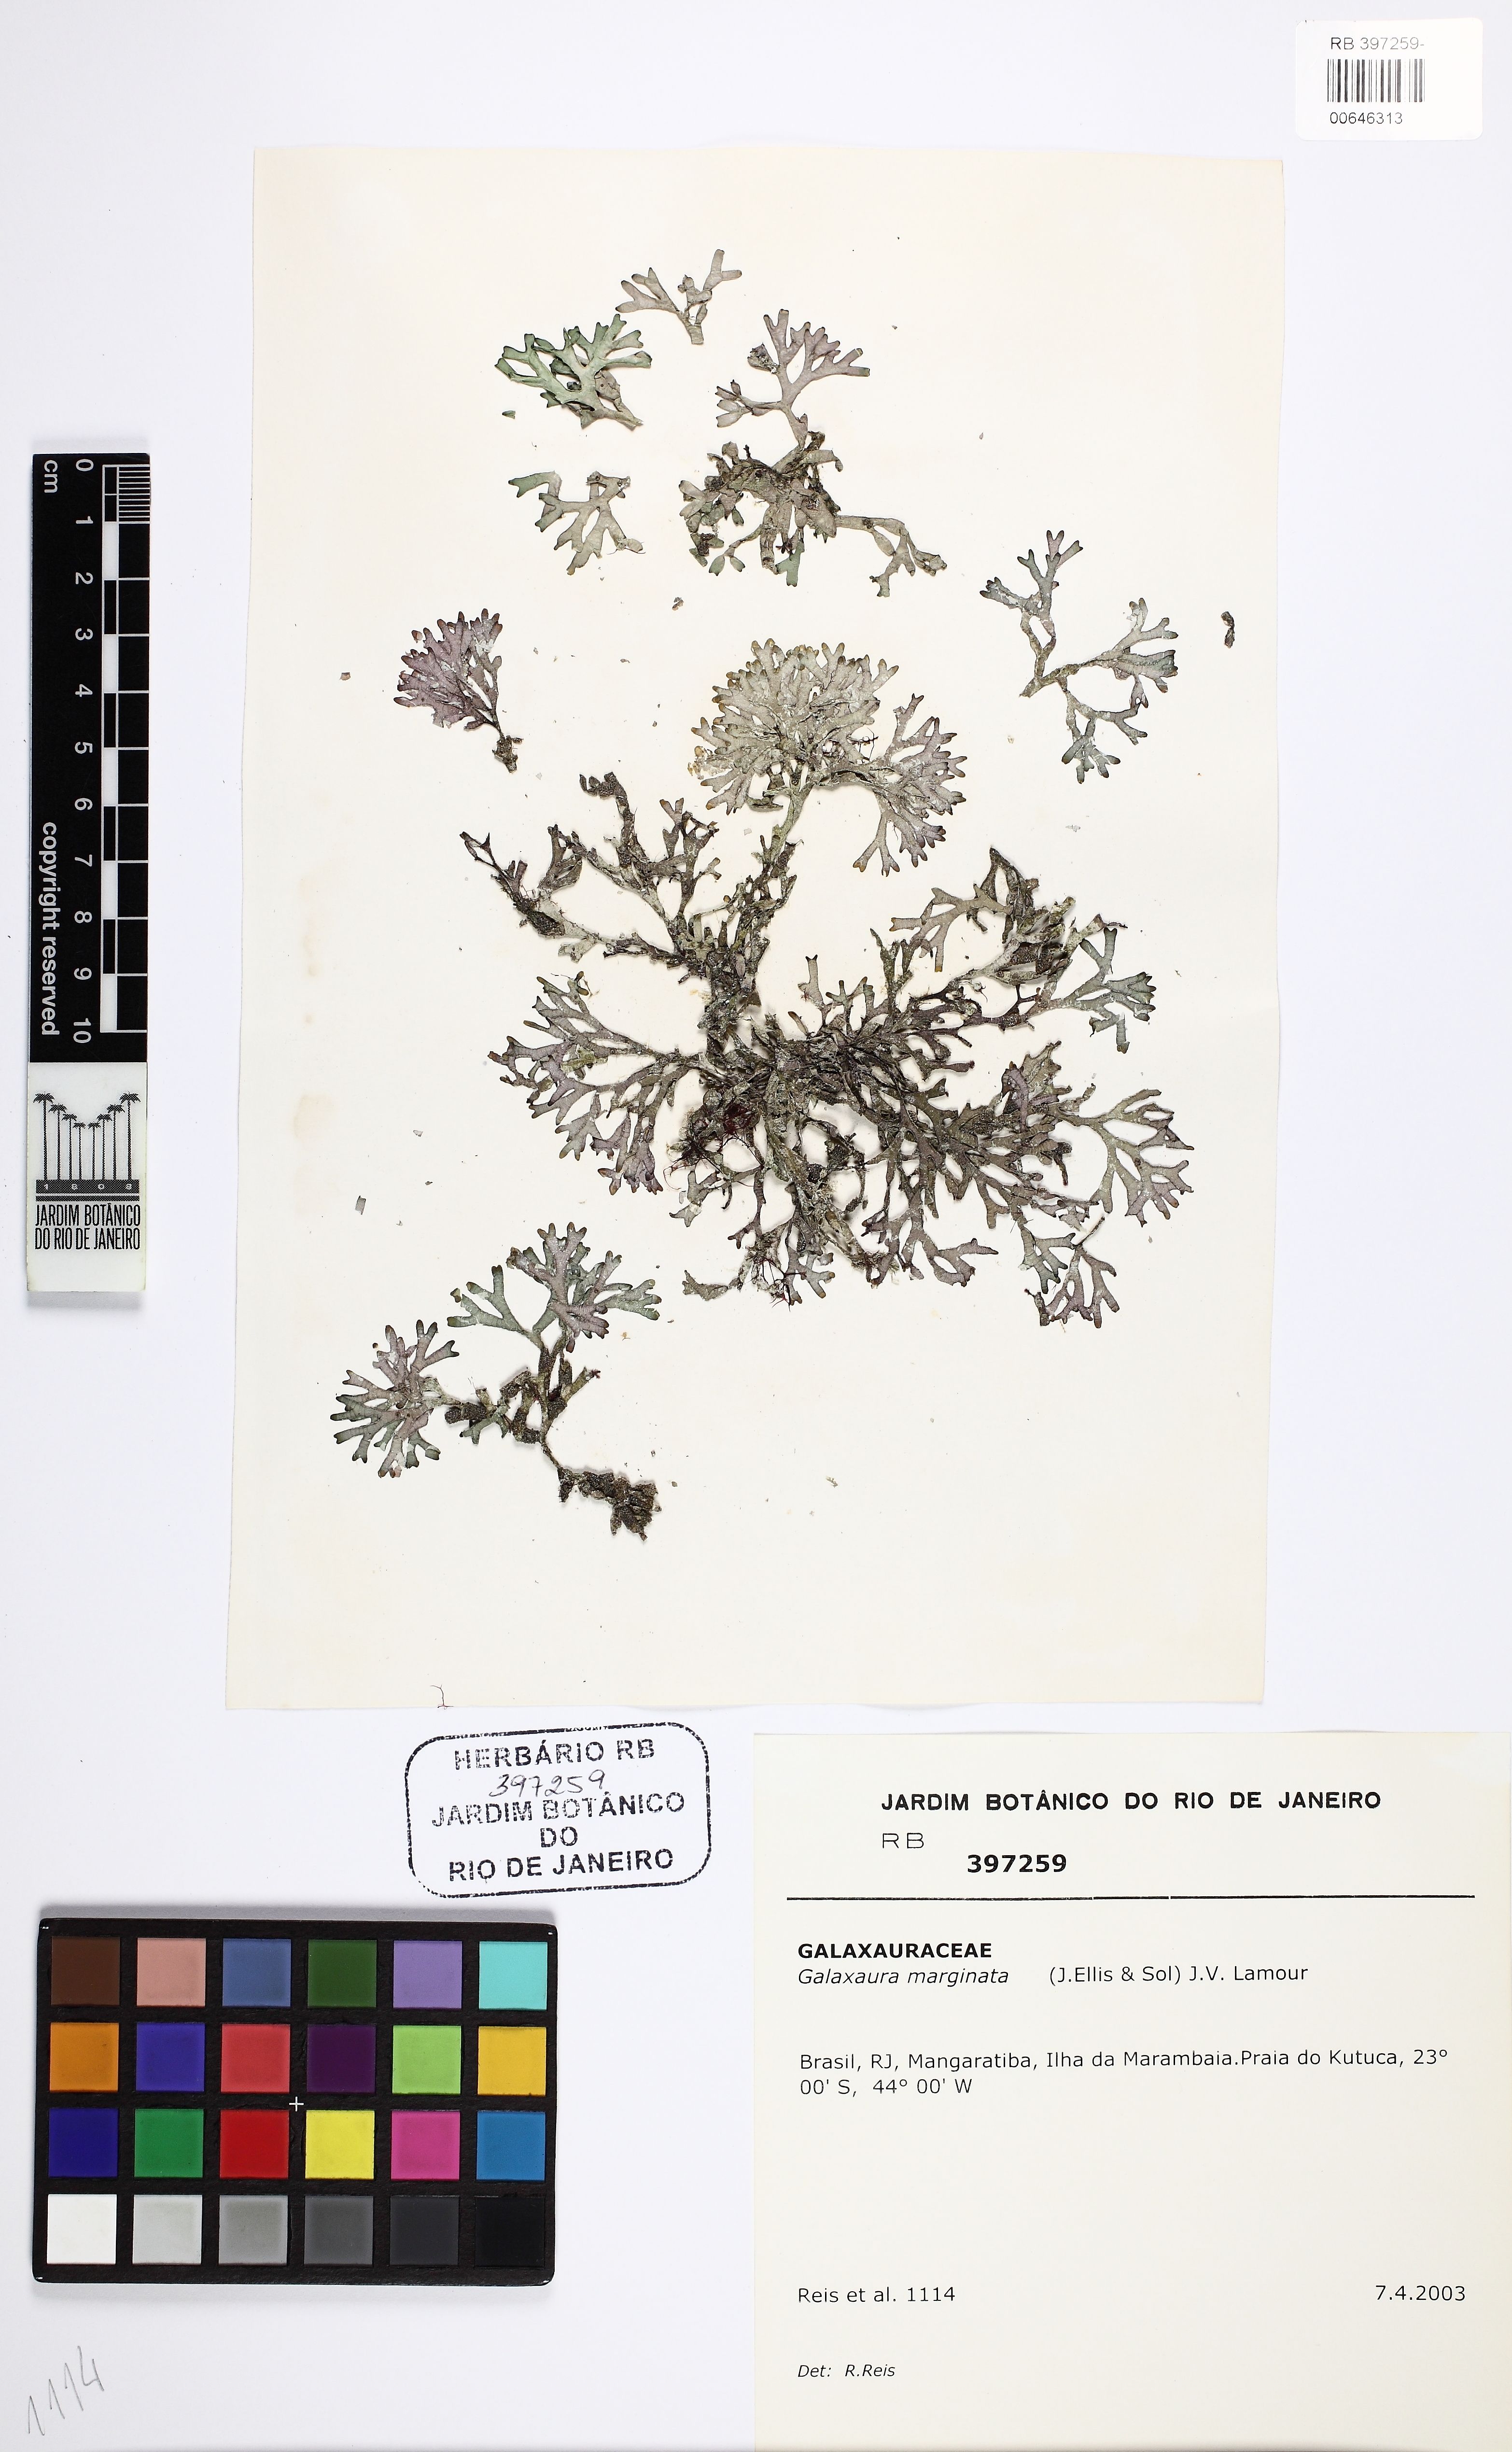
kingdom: Plantae
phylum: Rhodophyta
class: Florideophyceae
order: Nemaliales
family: Galaxauraceae
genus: Dichotomaria
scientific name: Dichotomaria marginata
